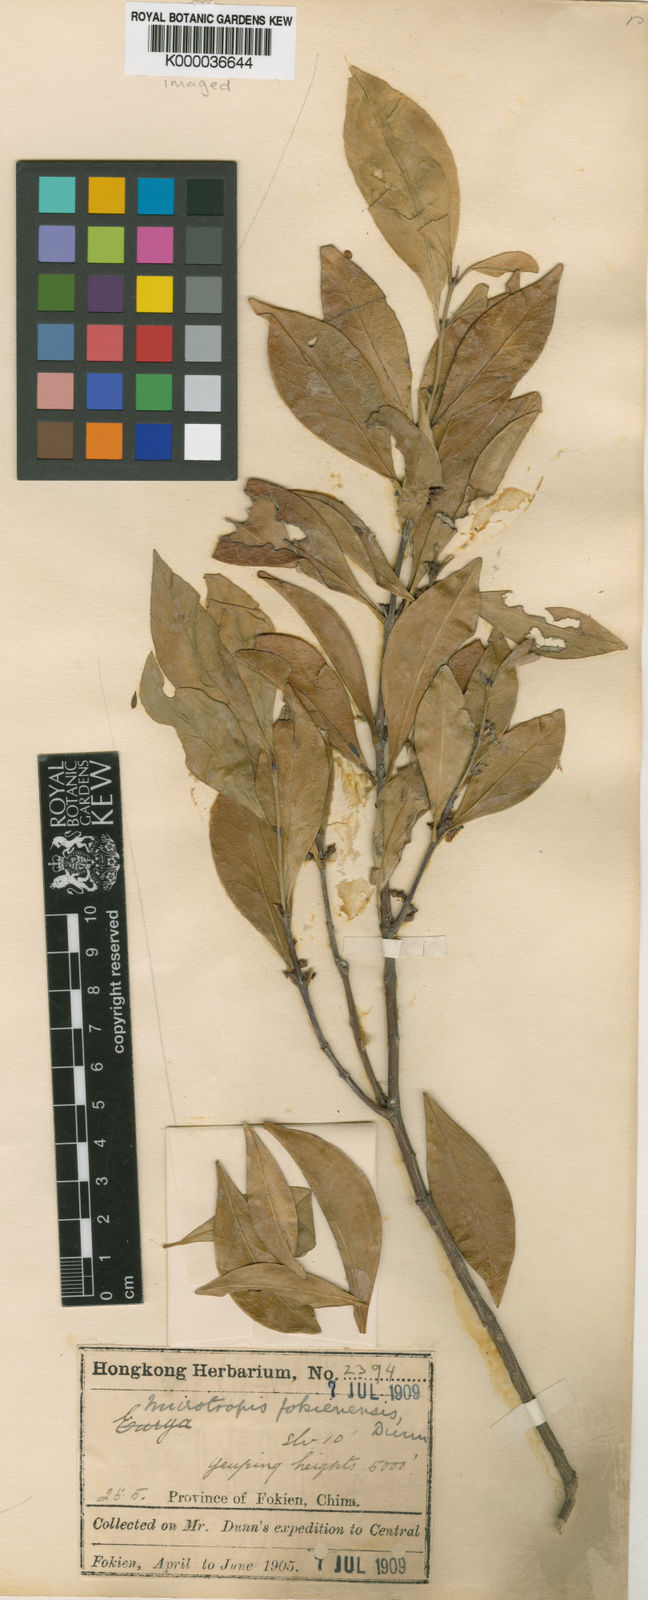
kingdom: Plantae
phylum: Tracheophyta
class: Magnoliopsida
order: Celastrales
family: Celastraceae
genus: Microtropis
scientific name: Microtropis fokienensis
